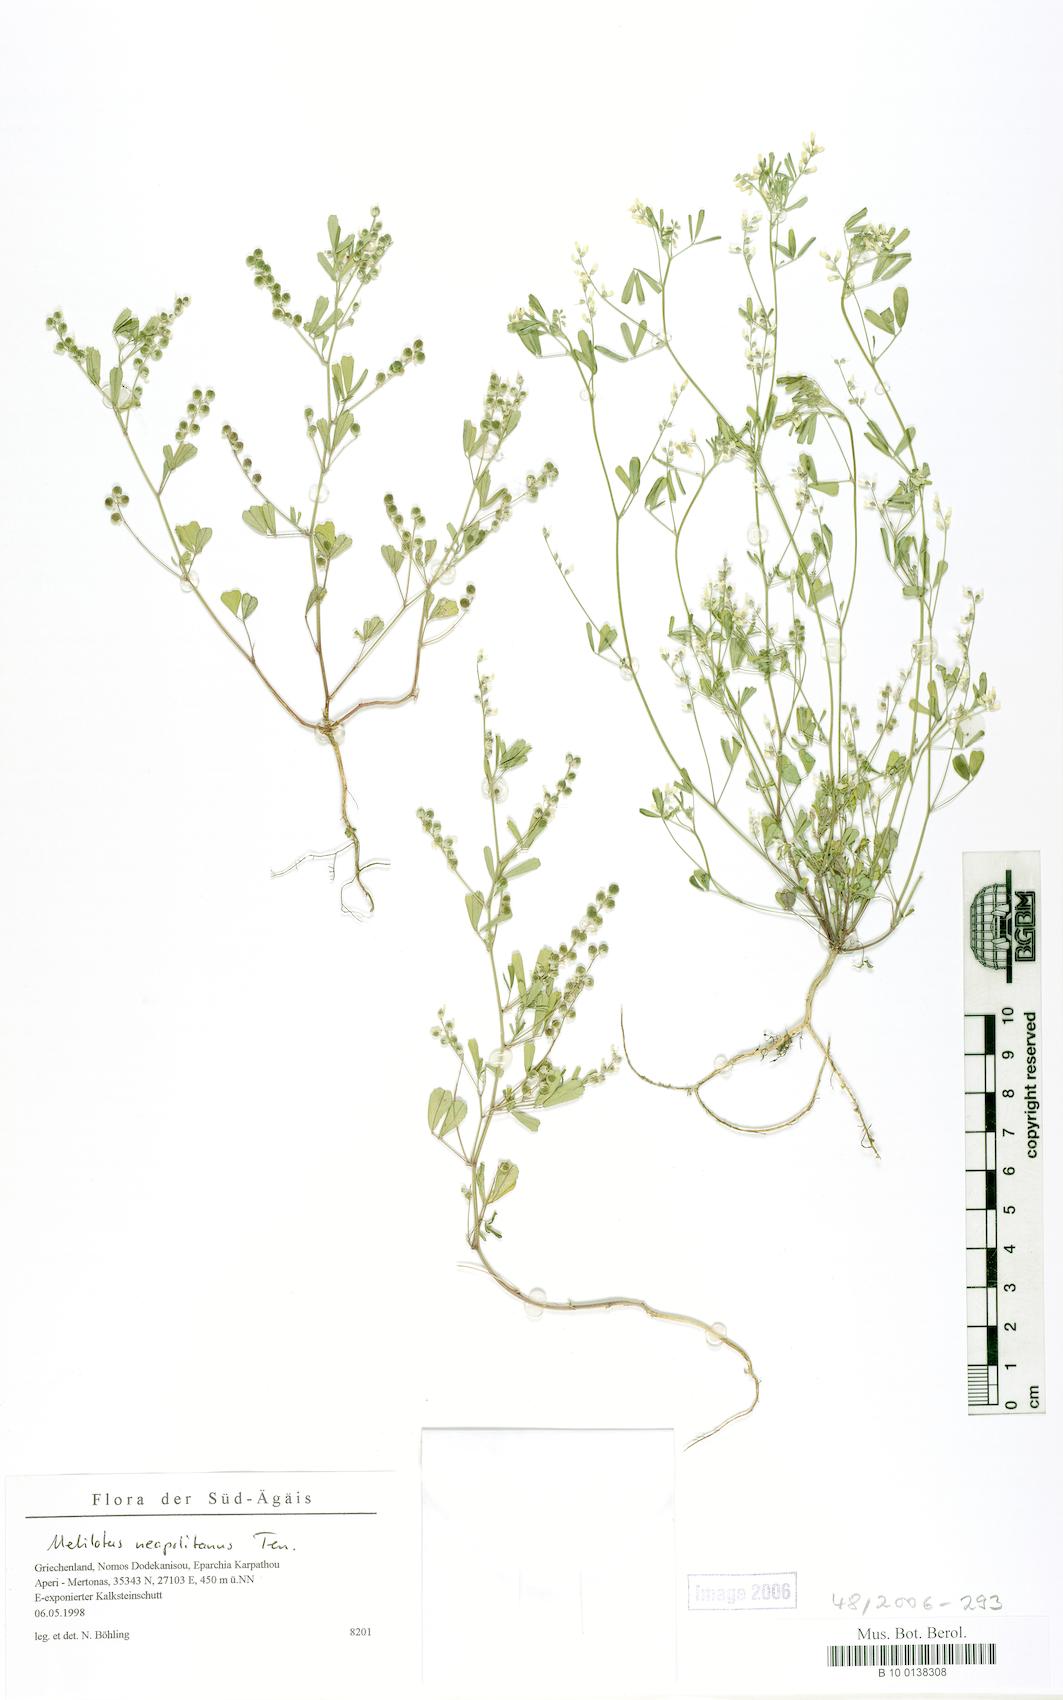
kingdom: Plantae
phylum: Tracheophyta
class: Magnoliopsida
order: Fabales
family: Fabaceae
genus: Melilotus
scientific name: Melilotus neapolitanus
